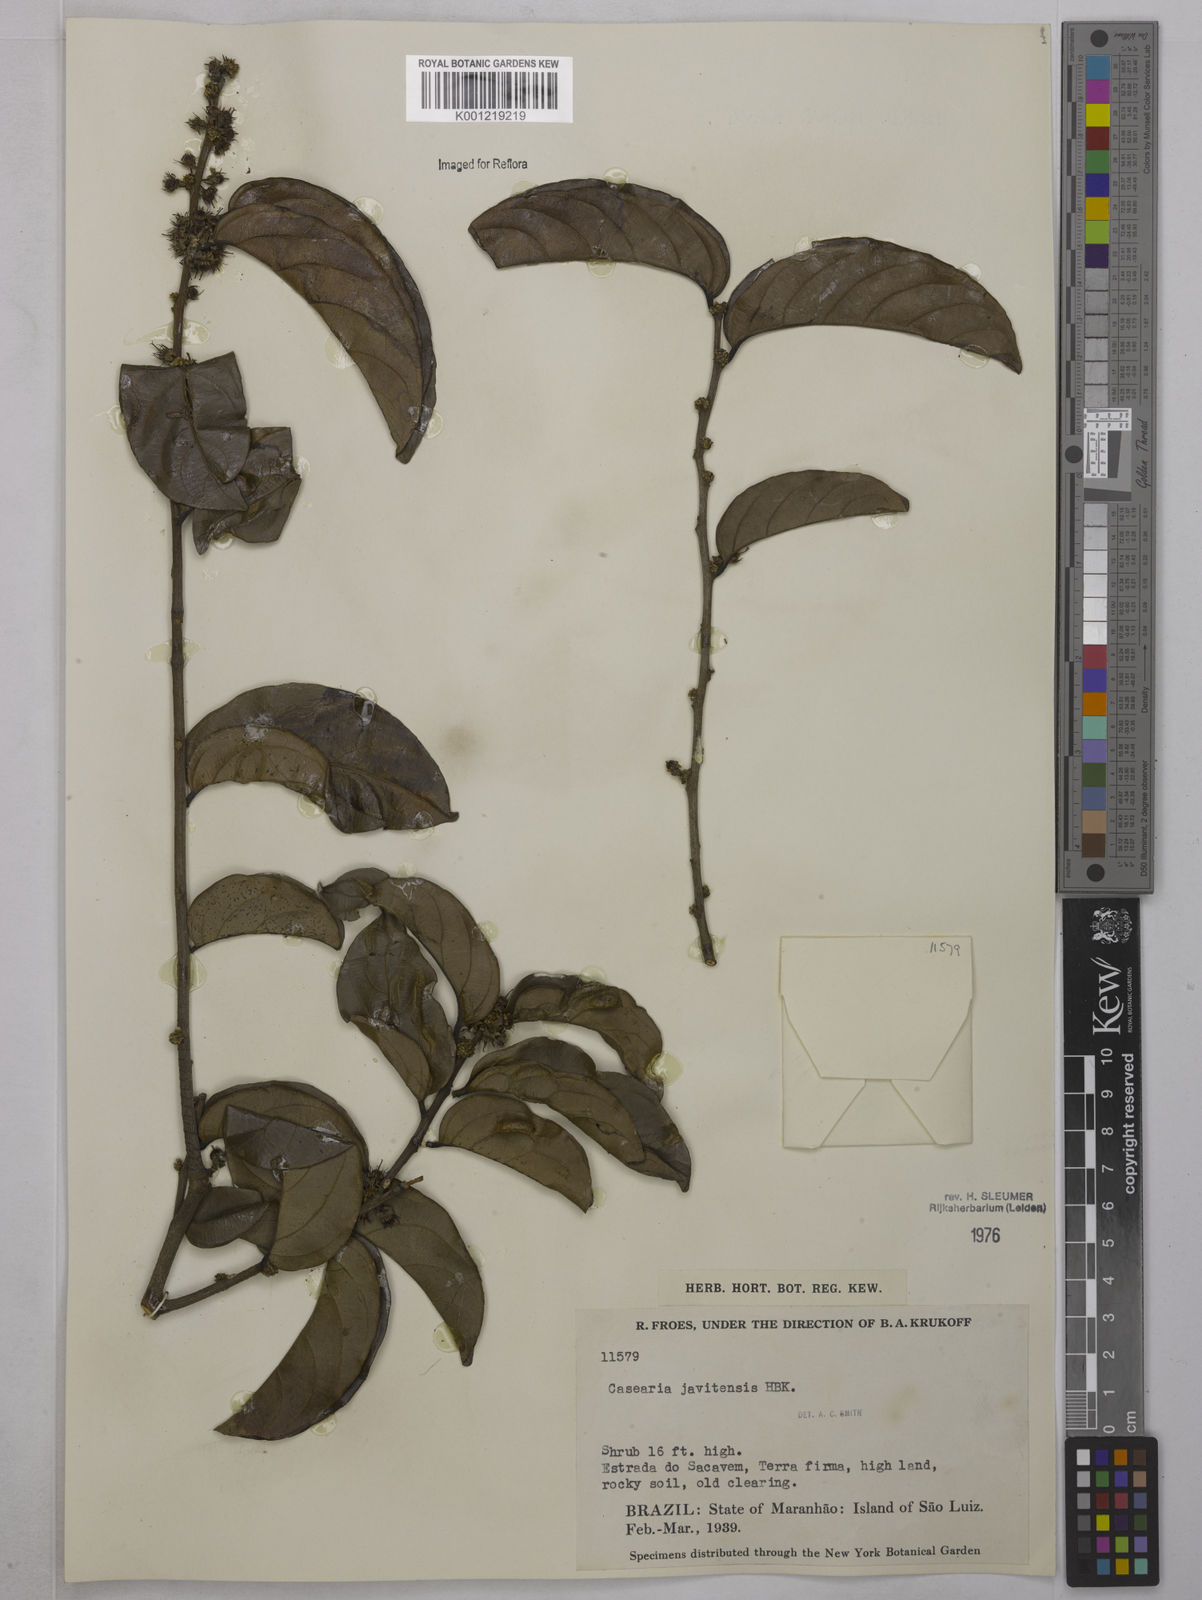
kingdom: Plantae
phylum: Tracheophyta
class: Magnoliopsida
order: Malpighiales
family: Salicaceae
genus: Piparea
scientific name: Piparea multiflora
